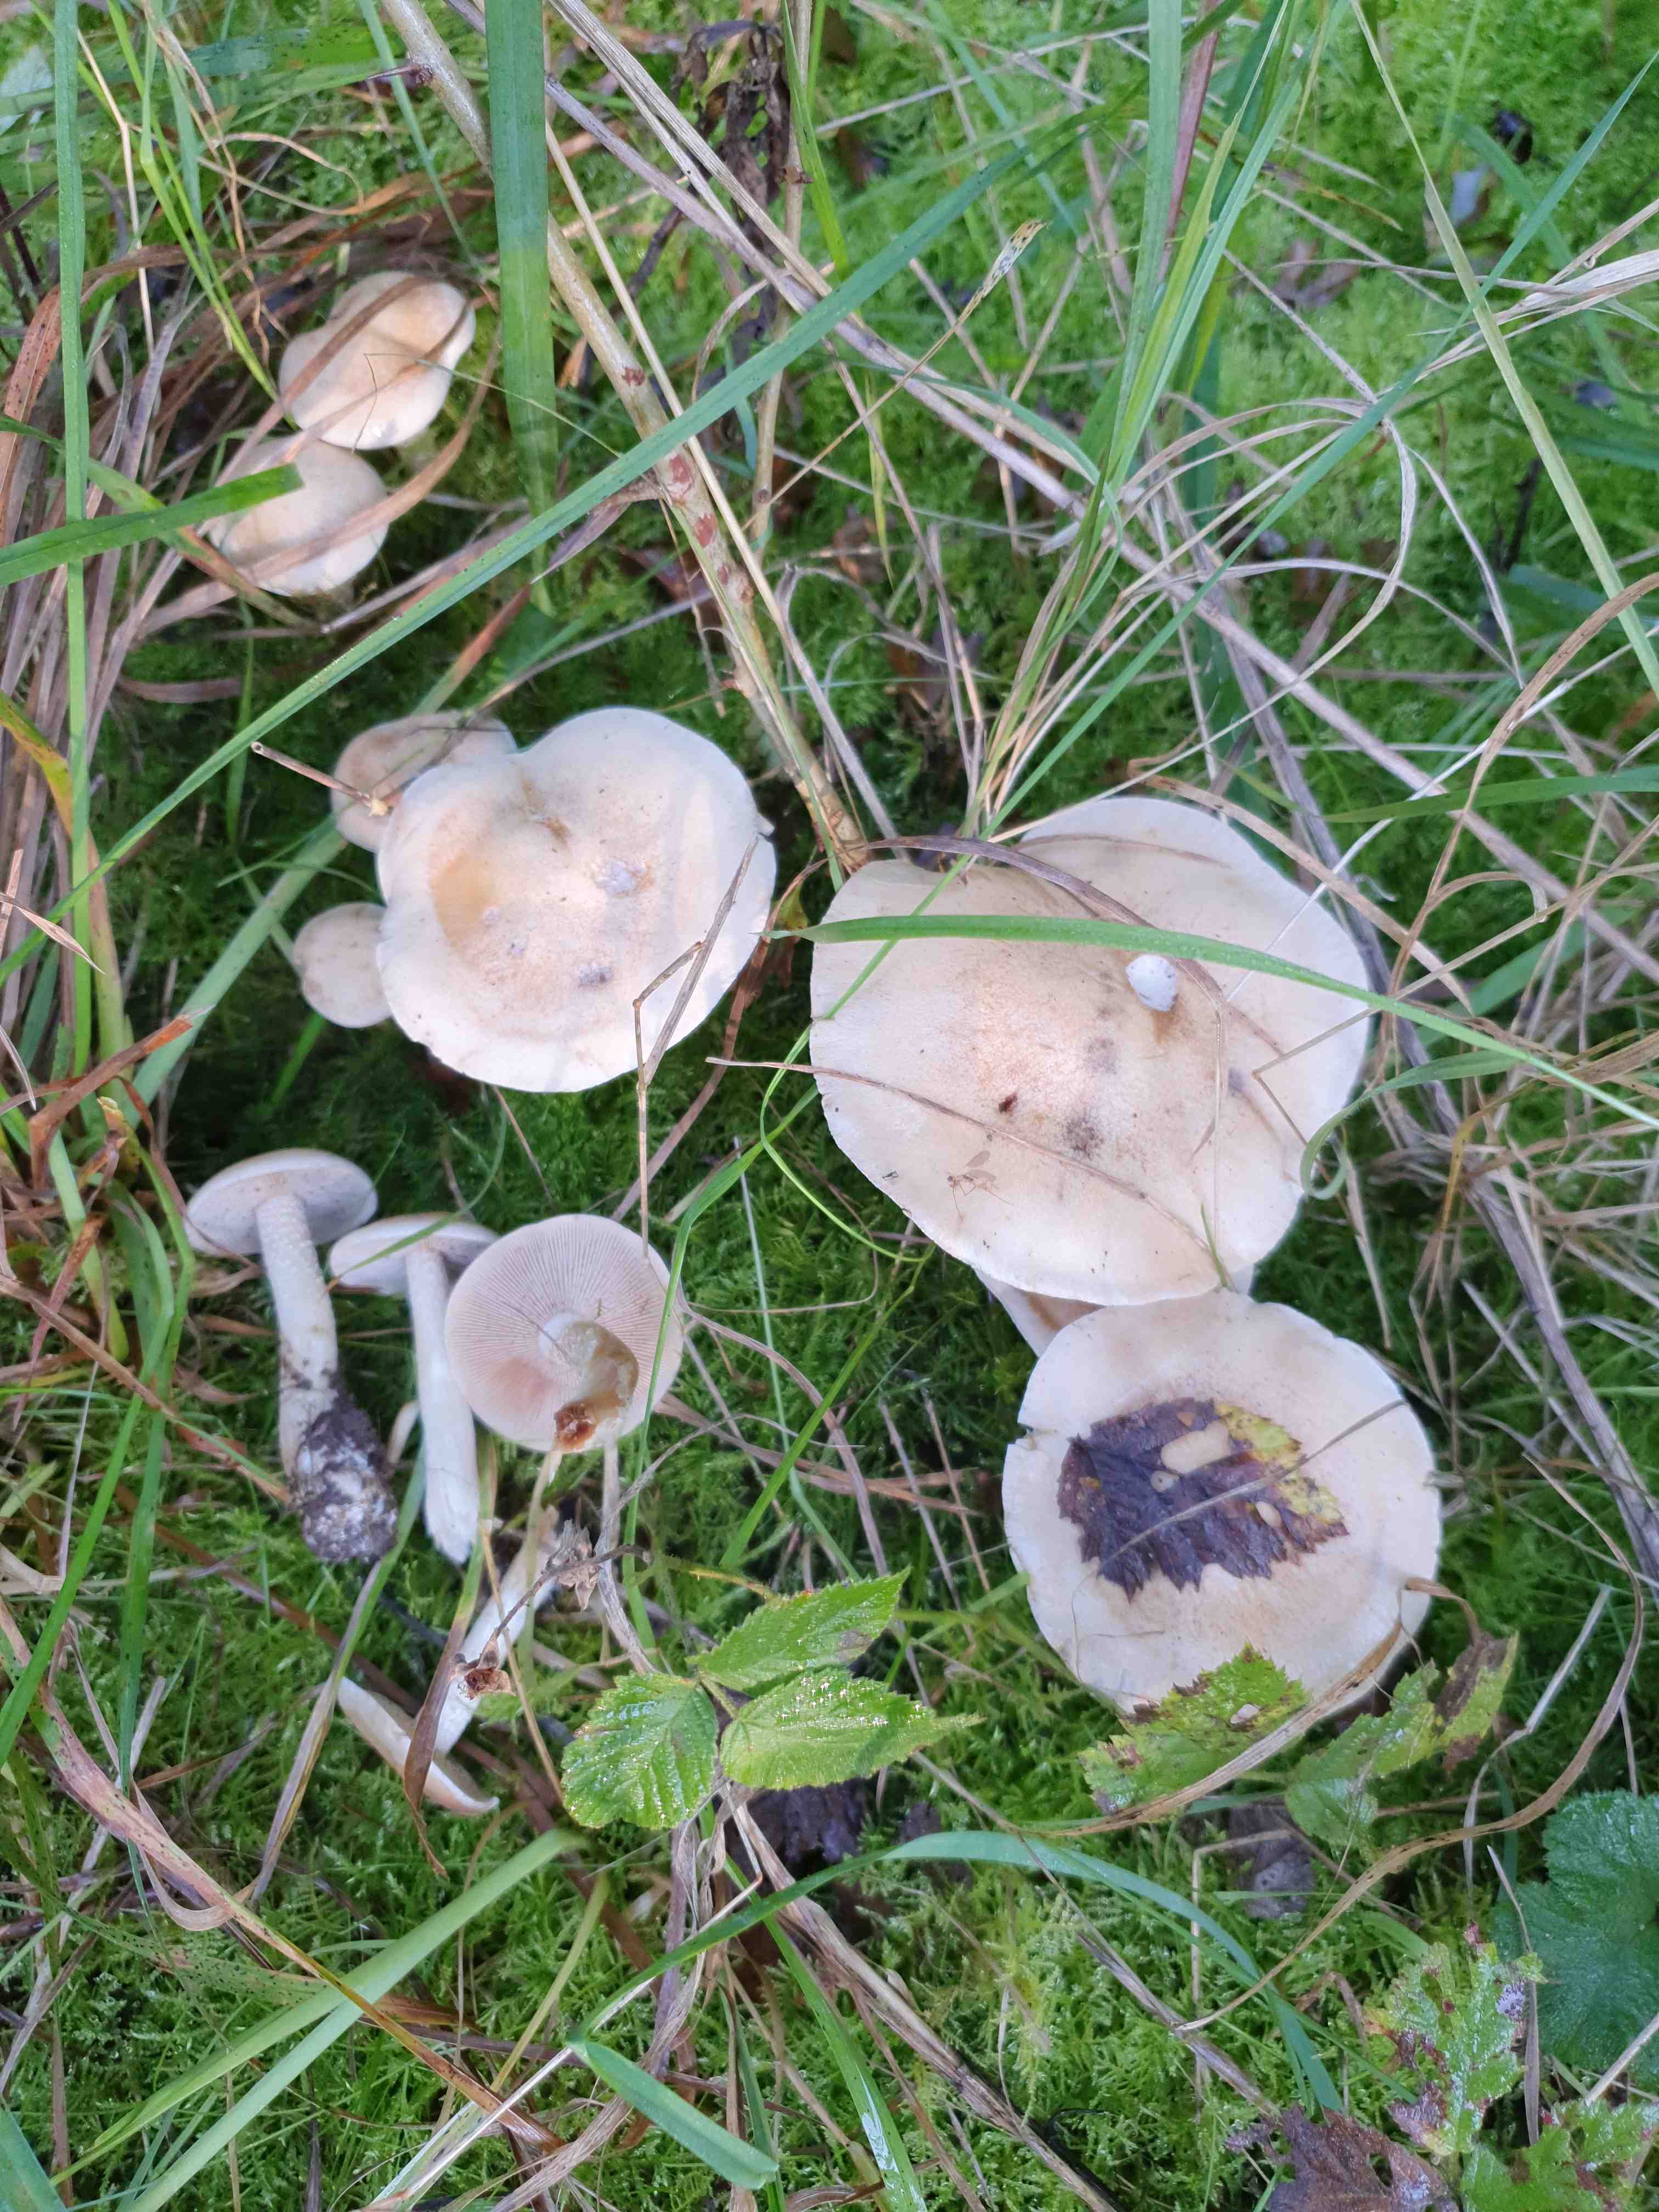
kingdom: Fungi
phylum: Basidiomycota
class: Agaricomycetes
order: Agaricales
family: Hymenogastraceae
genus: Hebeloma
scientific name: Hebeloma
